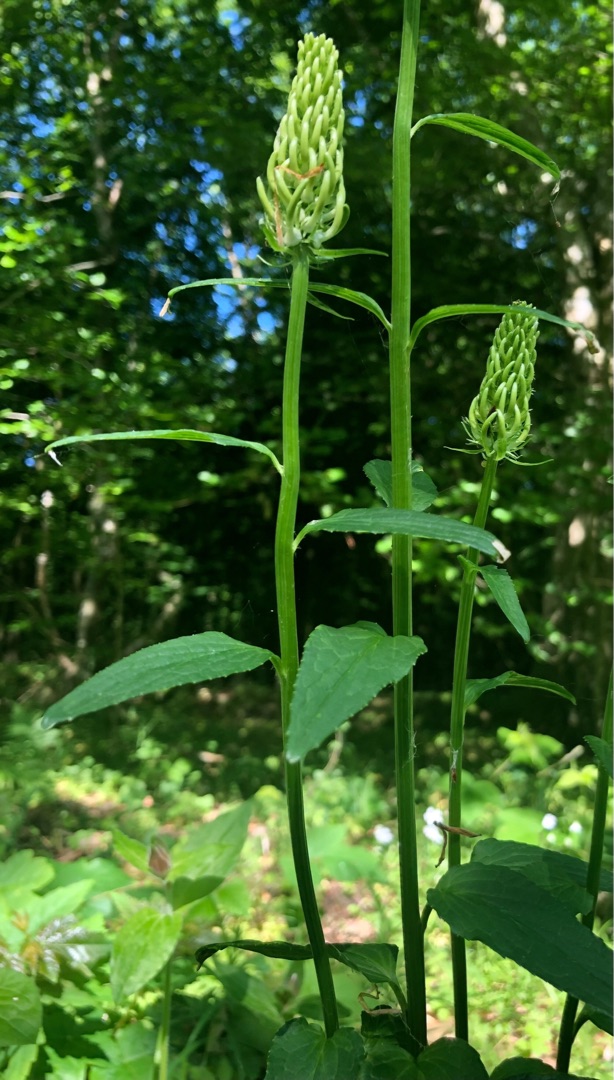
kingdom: Plantae
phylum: Tracheophyta
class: Magnoliopsida
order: Asterales
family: Campanulaceae
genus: Phyteuma
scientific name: Phyteuma spicatum
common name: Aks-rapunsel
